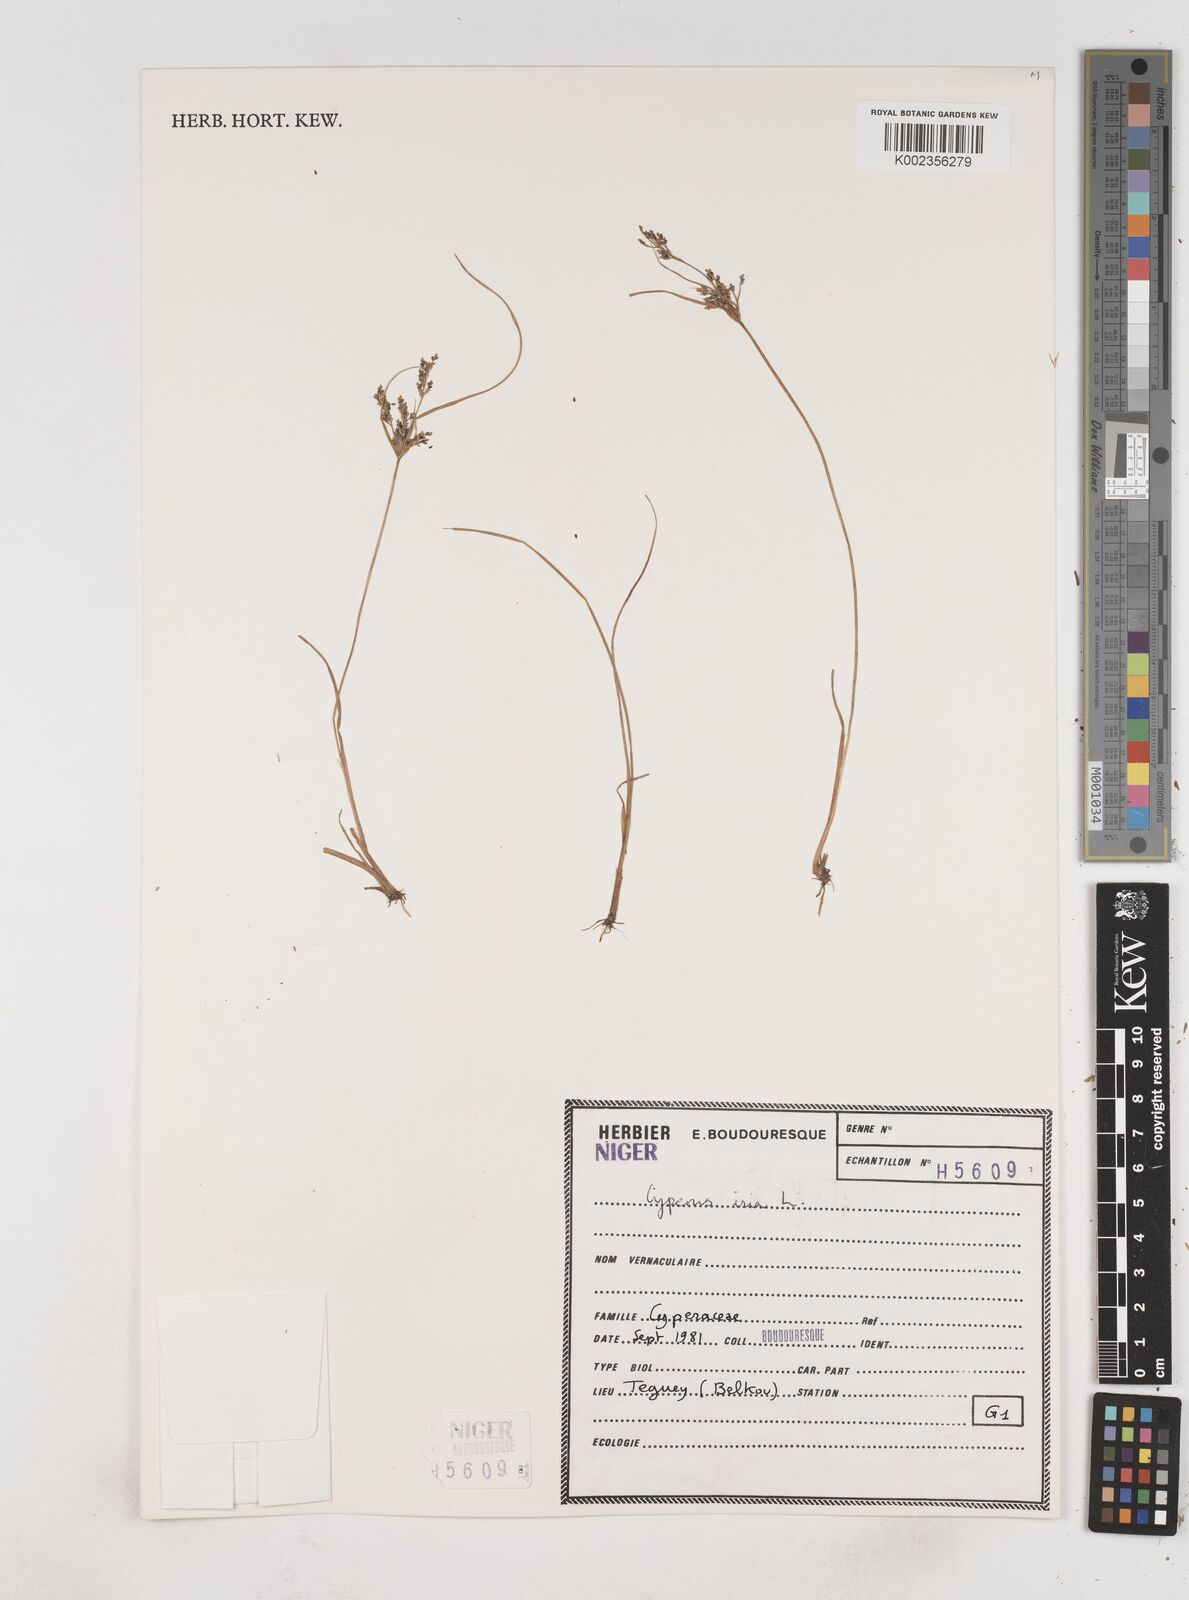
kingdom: Plantae
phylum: Tracheophyta
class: Liliopsida
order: Poales
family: Cyperaceae
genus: Cyperus
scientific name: Cyperus iria
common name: Ricefield flatsedge
